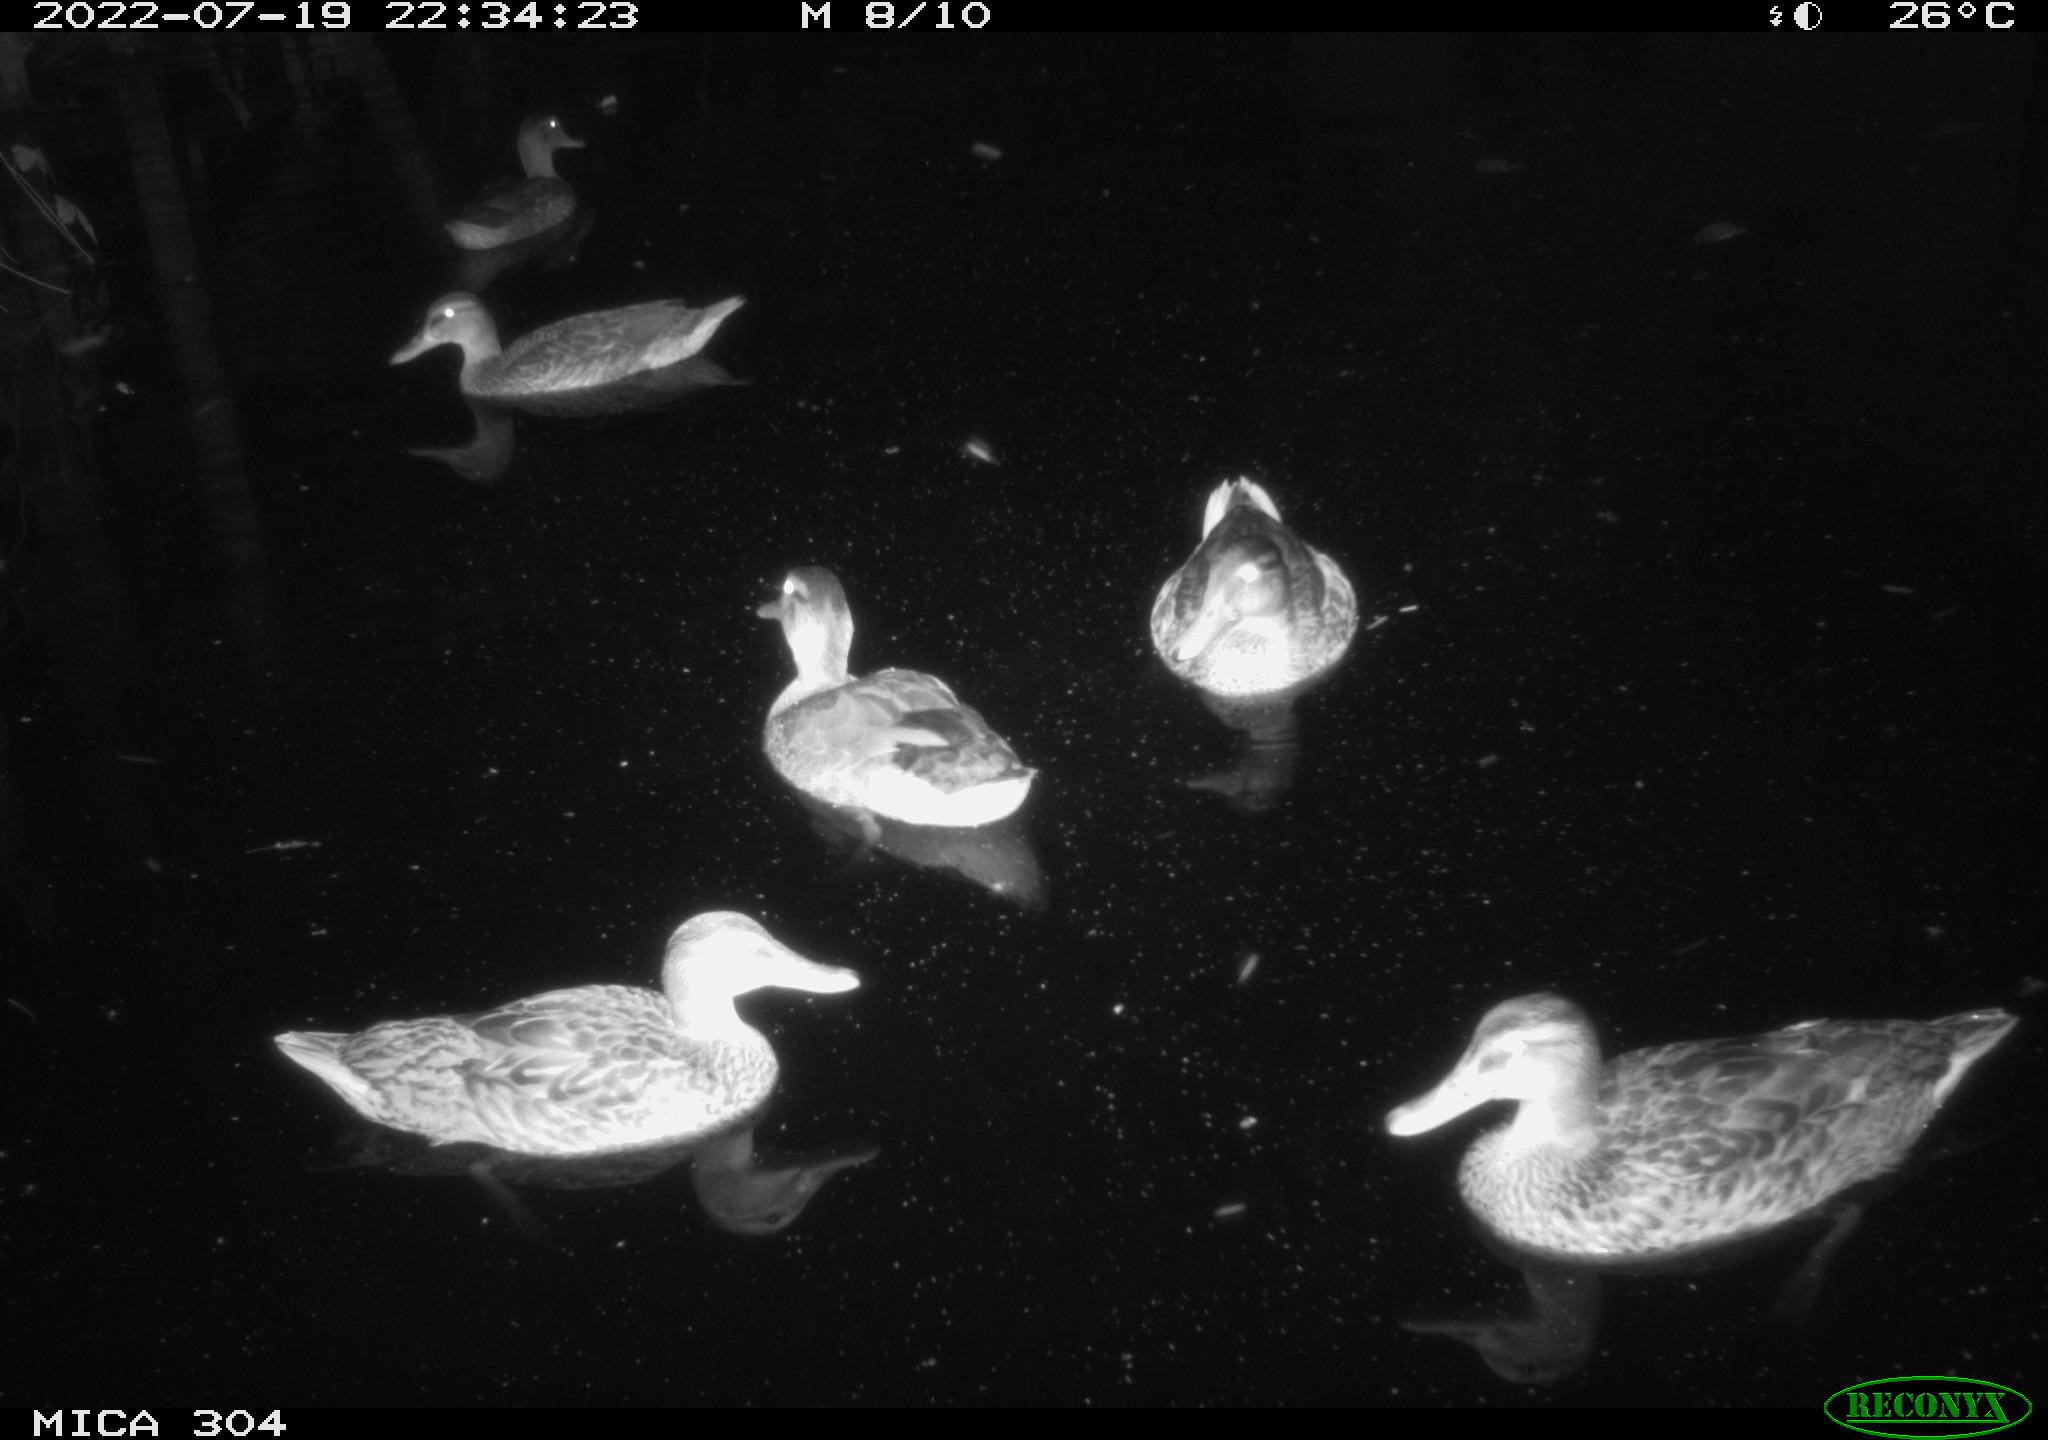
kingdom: Animalia
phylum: Chordata
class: Aves
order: Anseriformes
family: Anatidae
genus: Mareca
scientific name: Mareca strepera
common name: Gadwall
